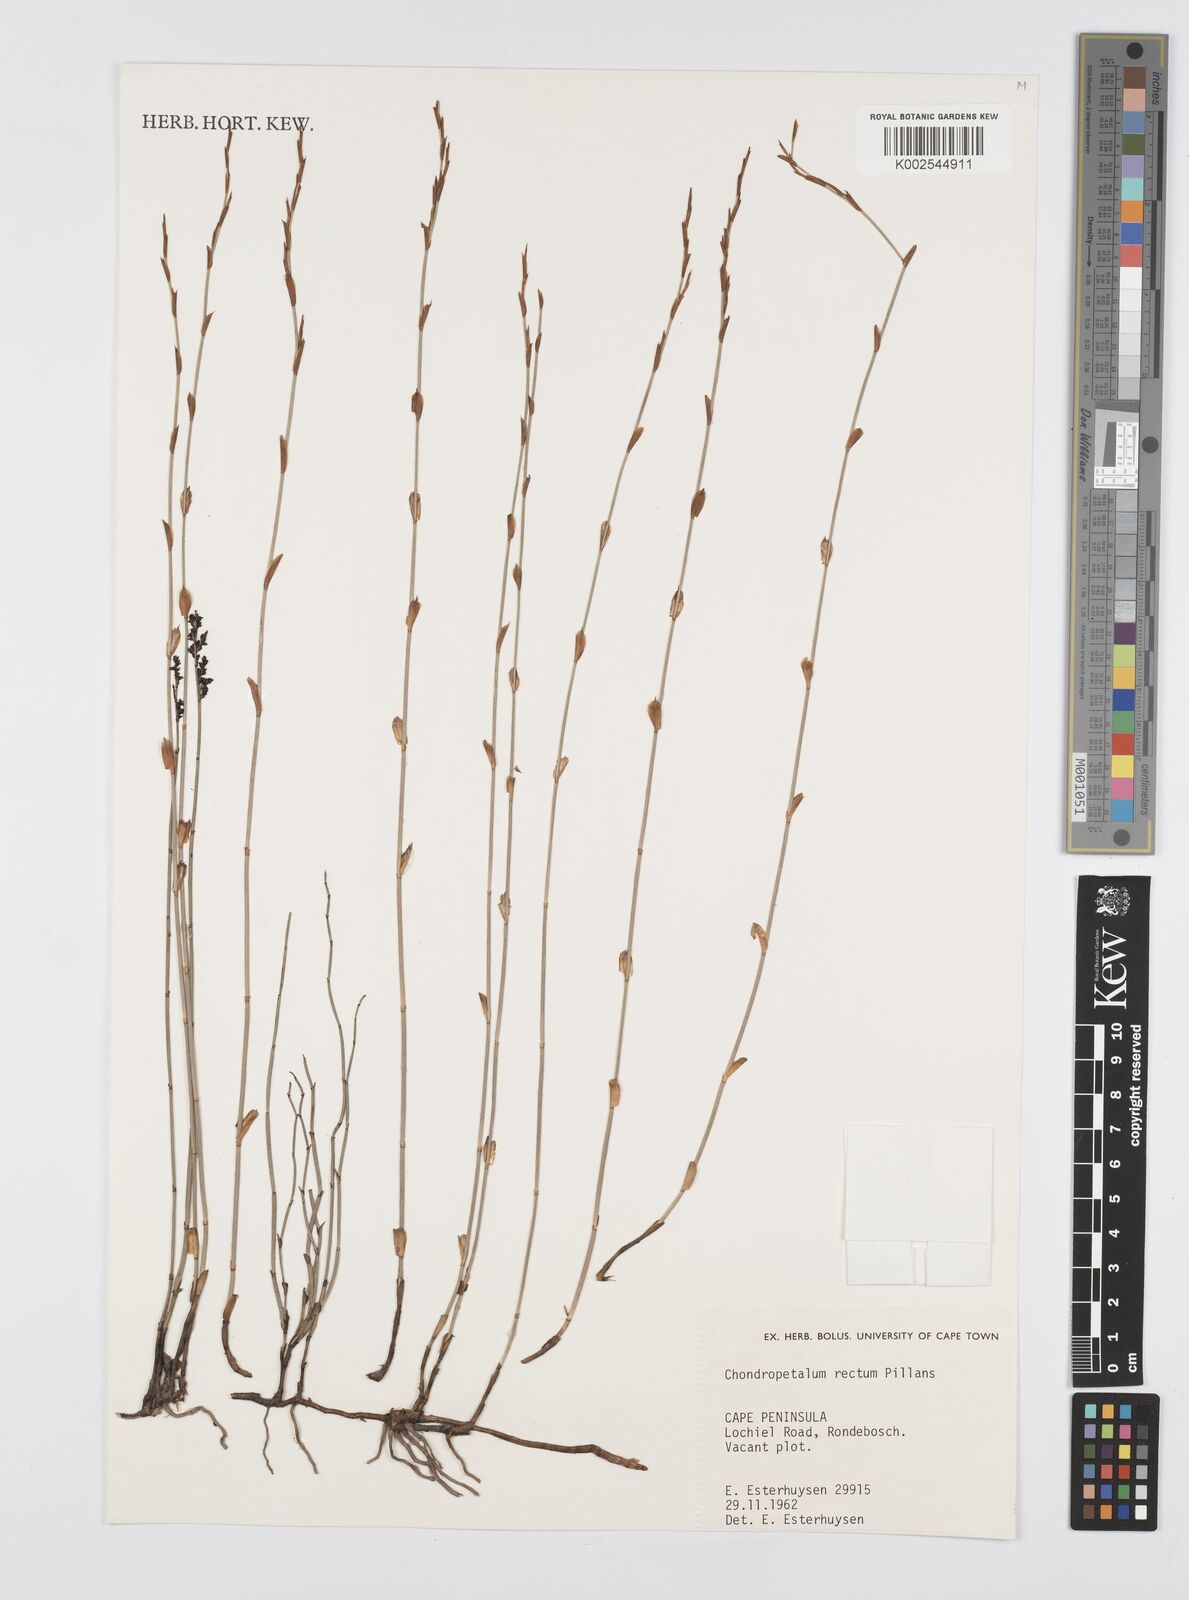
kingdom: Plantae
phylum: Tracheophyta
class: Liliopsida
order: Poales
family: Restionaceae
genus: Elegia
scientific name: Elegia recta
